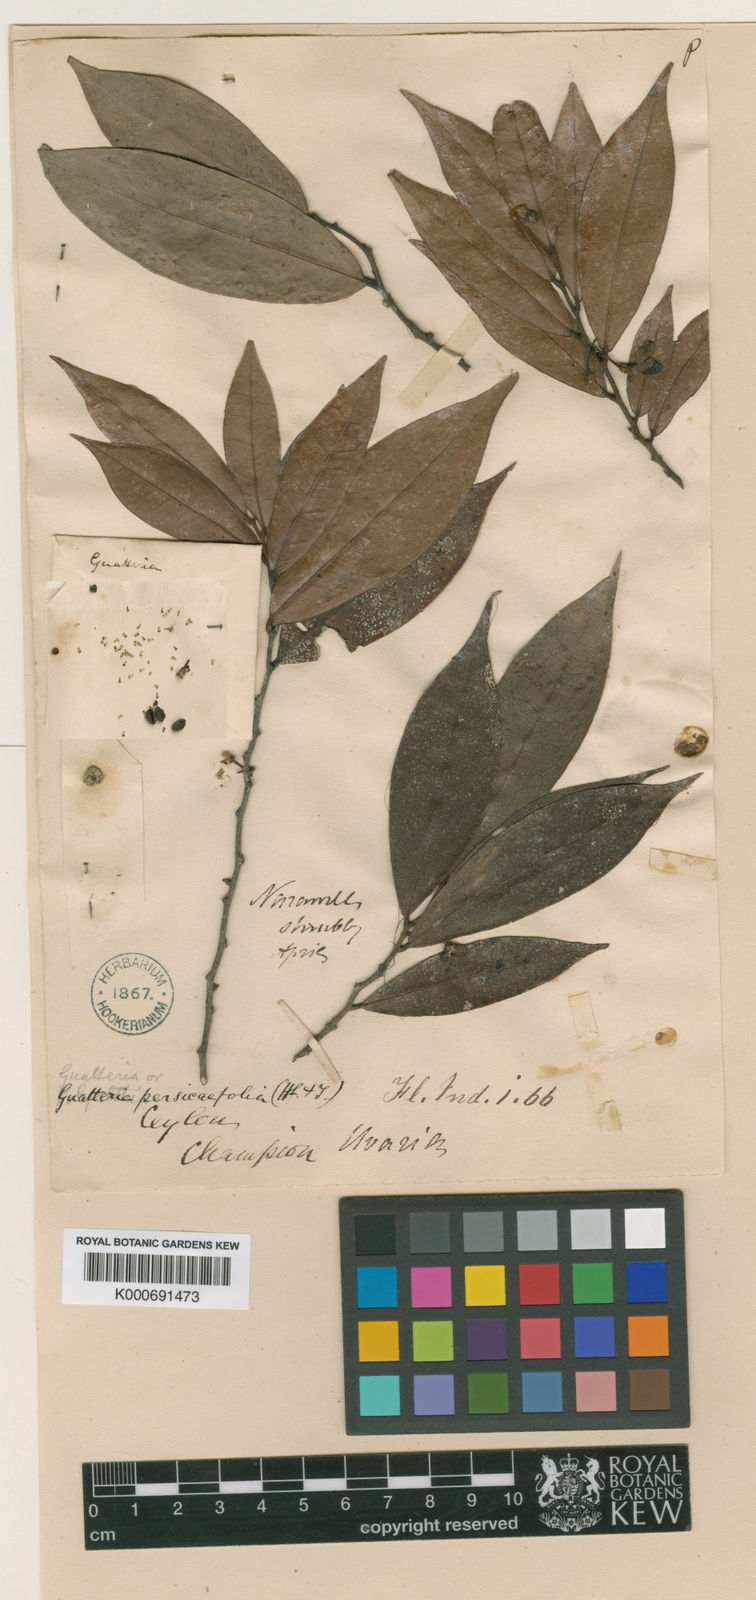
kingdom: Plantae
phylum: Tracheophyta
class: Magnoliopsida
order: Magnoliales
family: Annonaceae
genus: Polyalthia
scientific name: Polyalthia persicifolia
